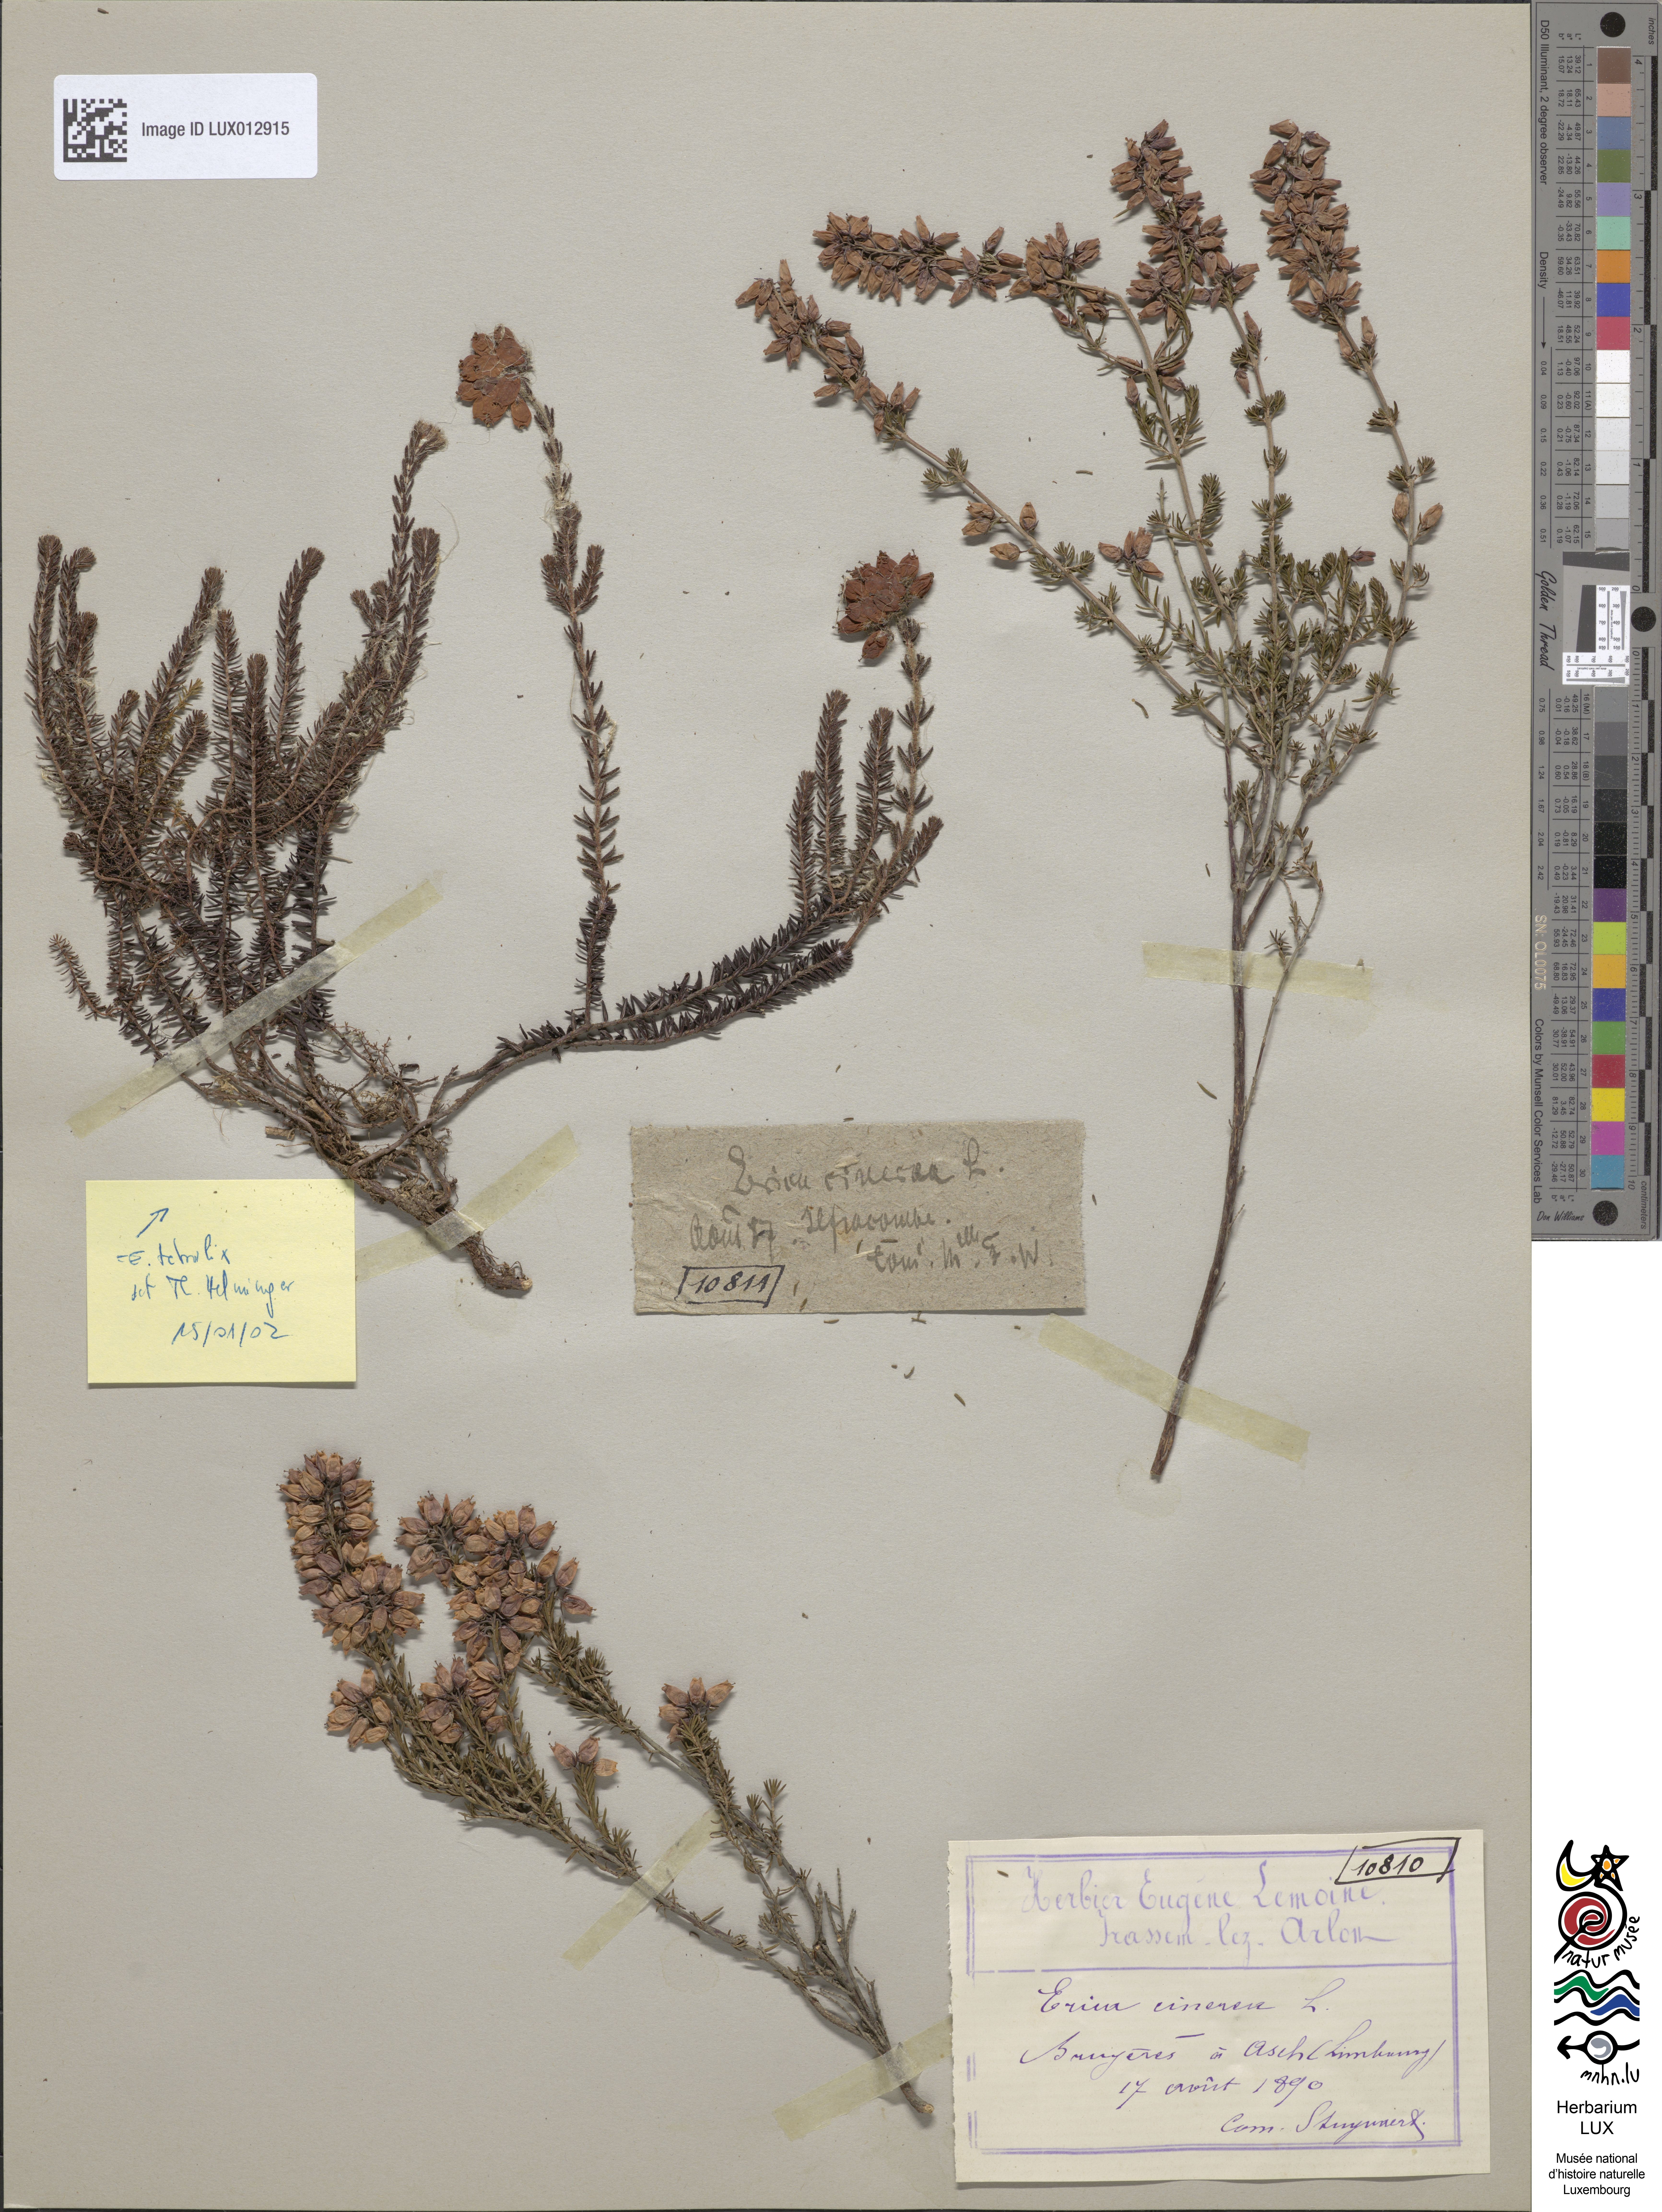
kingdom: Plantae
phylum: Tracheophyta
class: Magnoliopsida
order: Ericales
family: Ericaceae
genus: Erica
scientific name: Erica cinerea
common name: Bell heather
